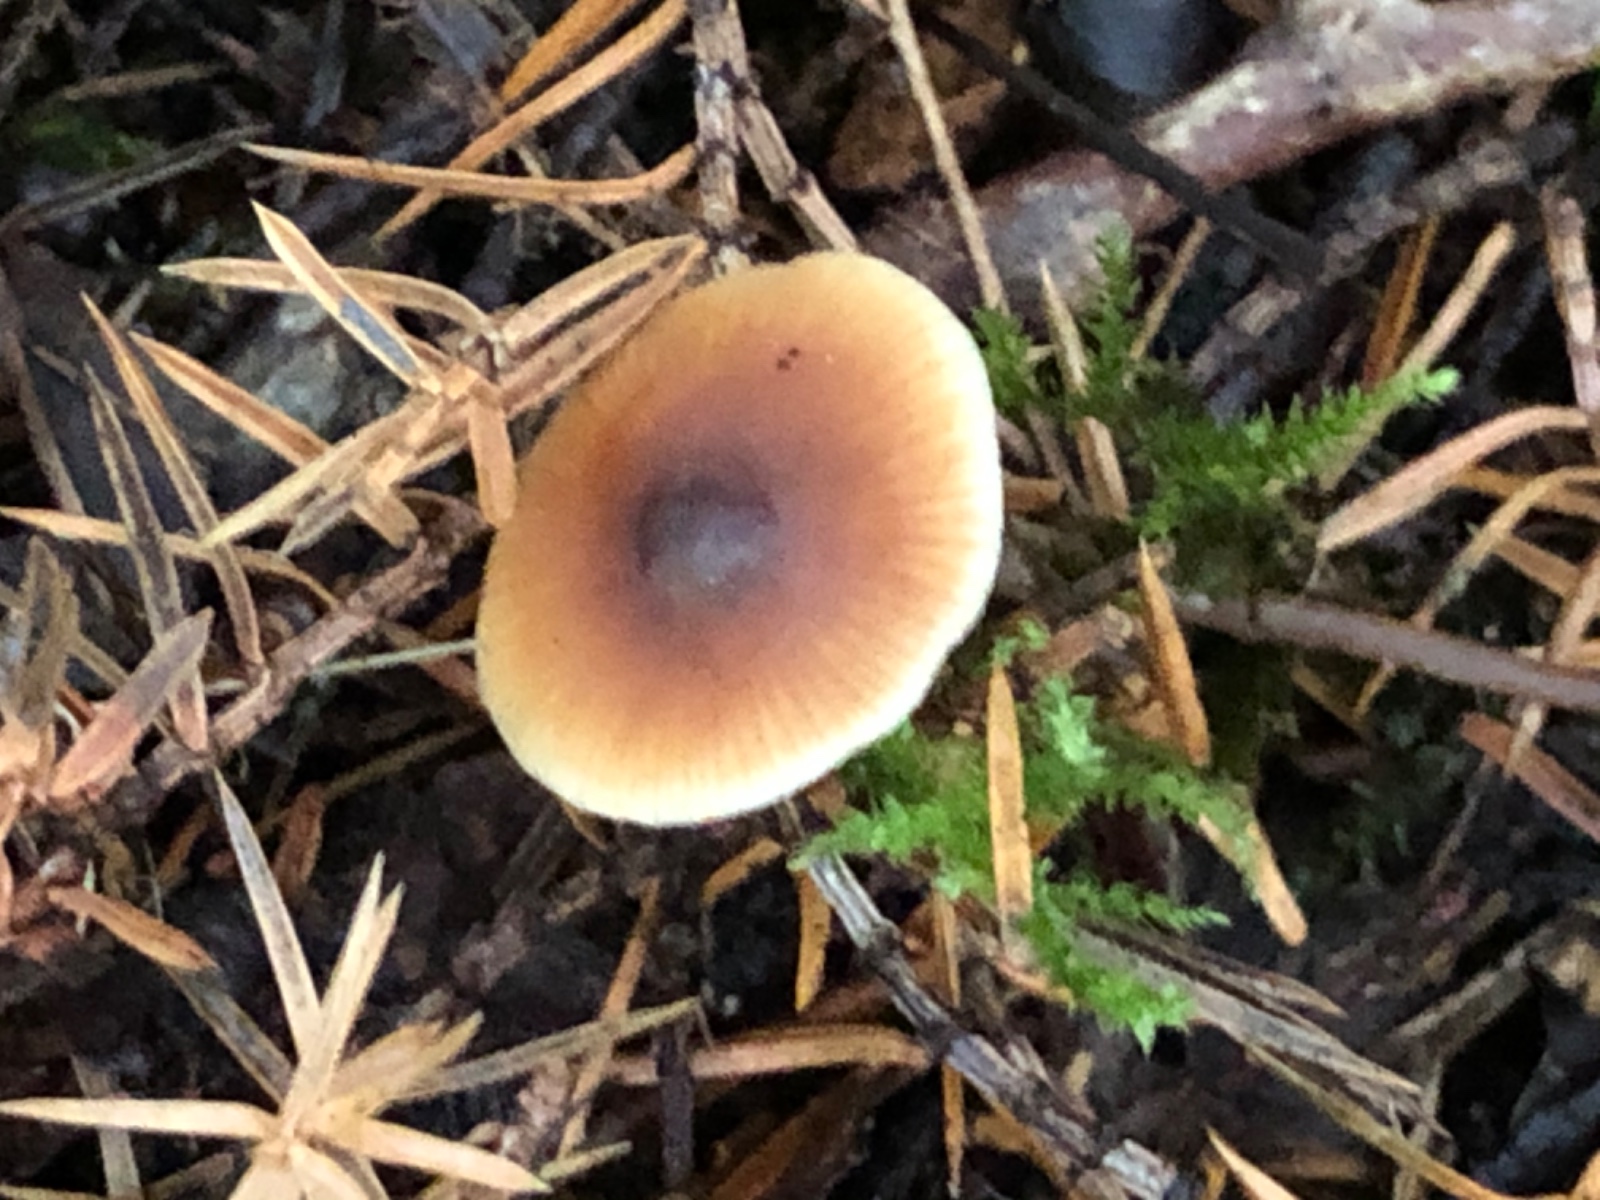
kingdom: Fungi
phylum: Basidiomycota
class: Agaricomycetes
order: Agaricales
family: Macrocystidiaceae
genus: Macrocystidia
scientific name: Macrocystidia cucumis
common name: agurkehat
